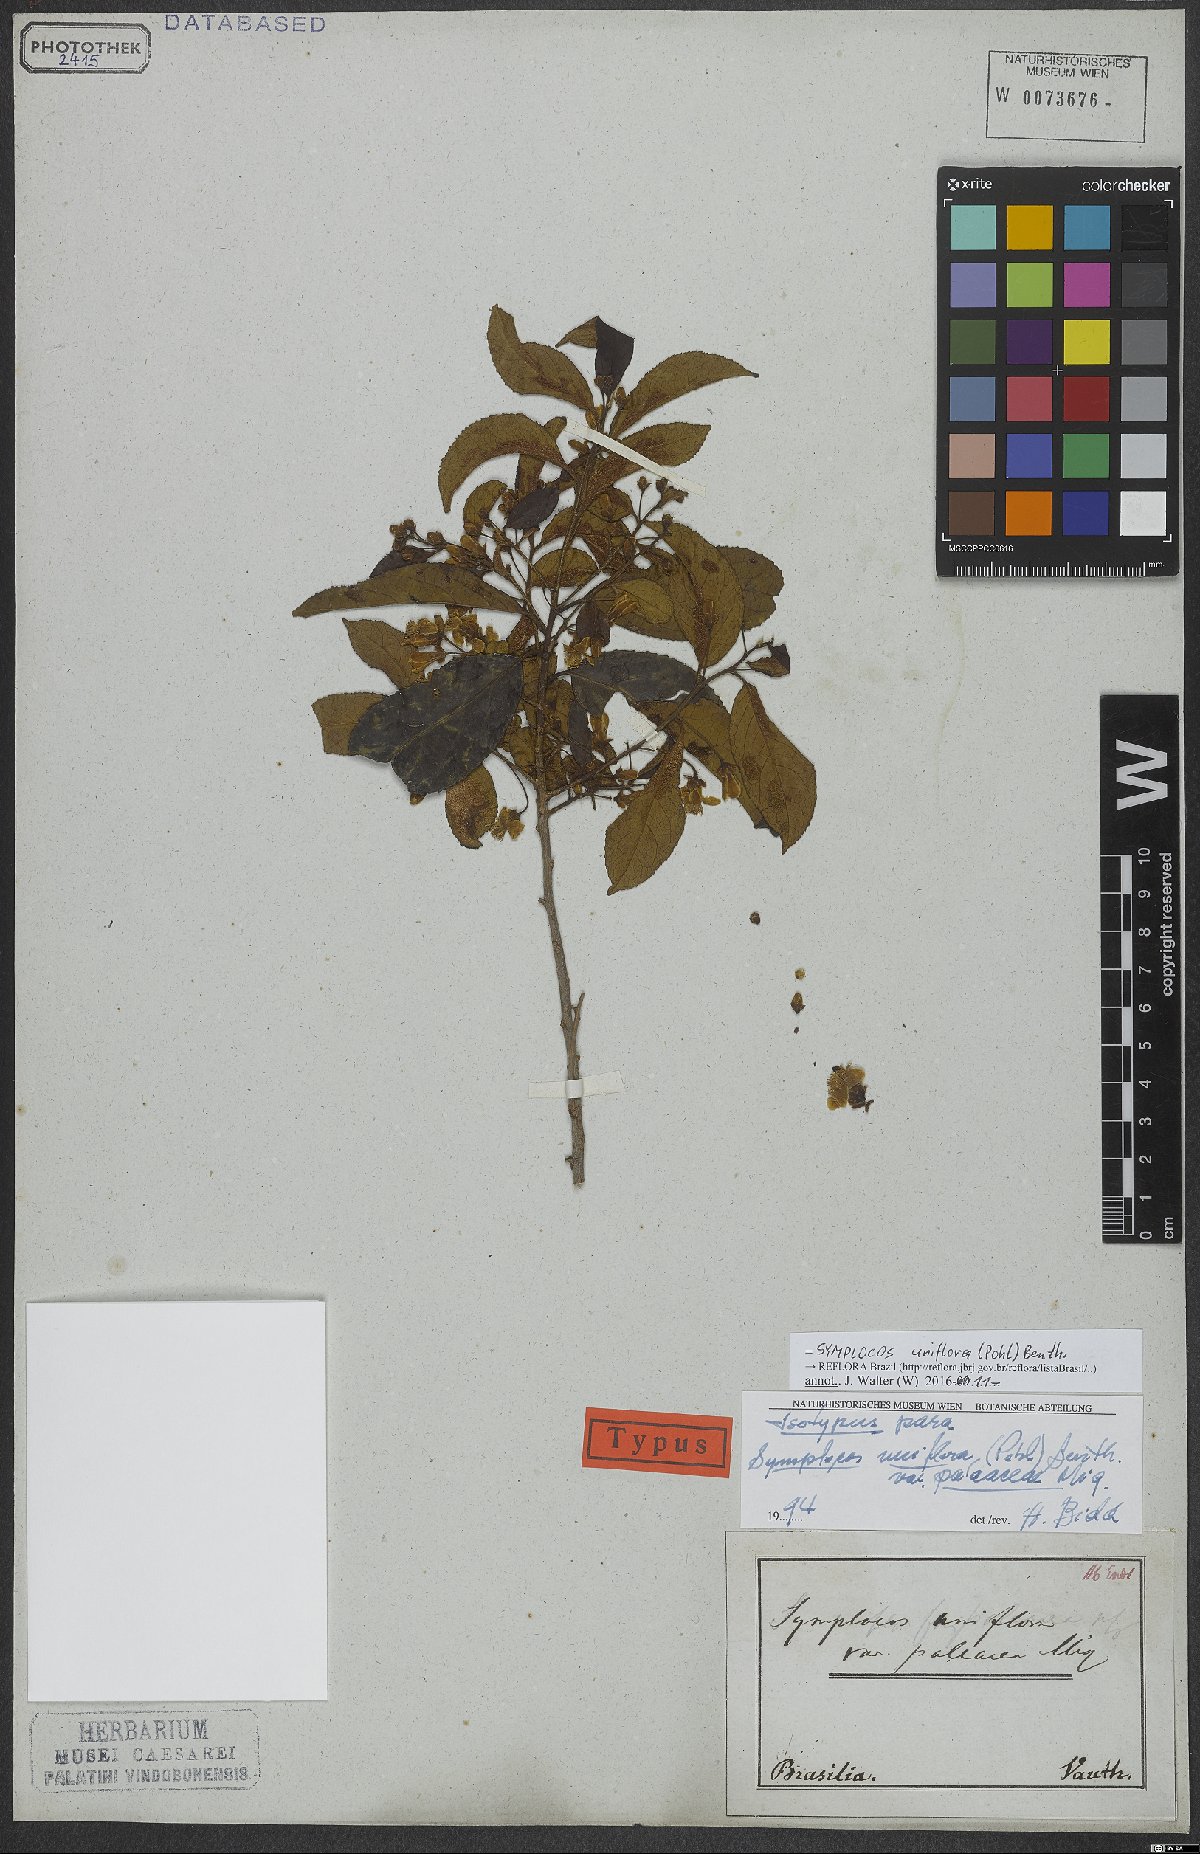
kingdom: Plantae
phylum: Tracheophyta
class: Magnoliopsida
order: Ericales
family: Symplocaceae
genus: Symplocos
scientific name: Symplocos uniflora
